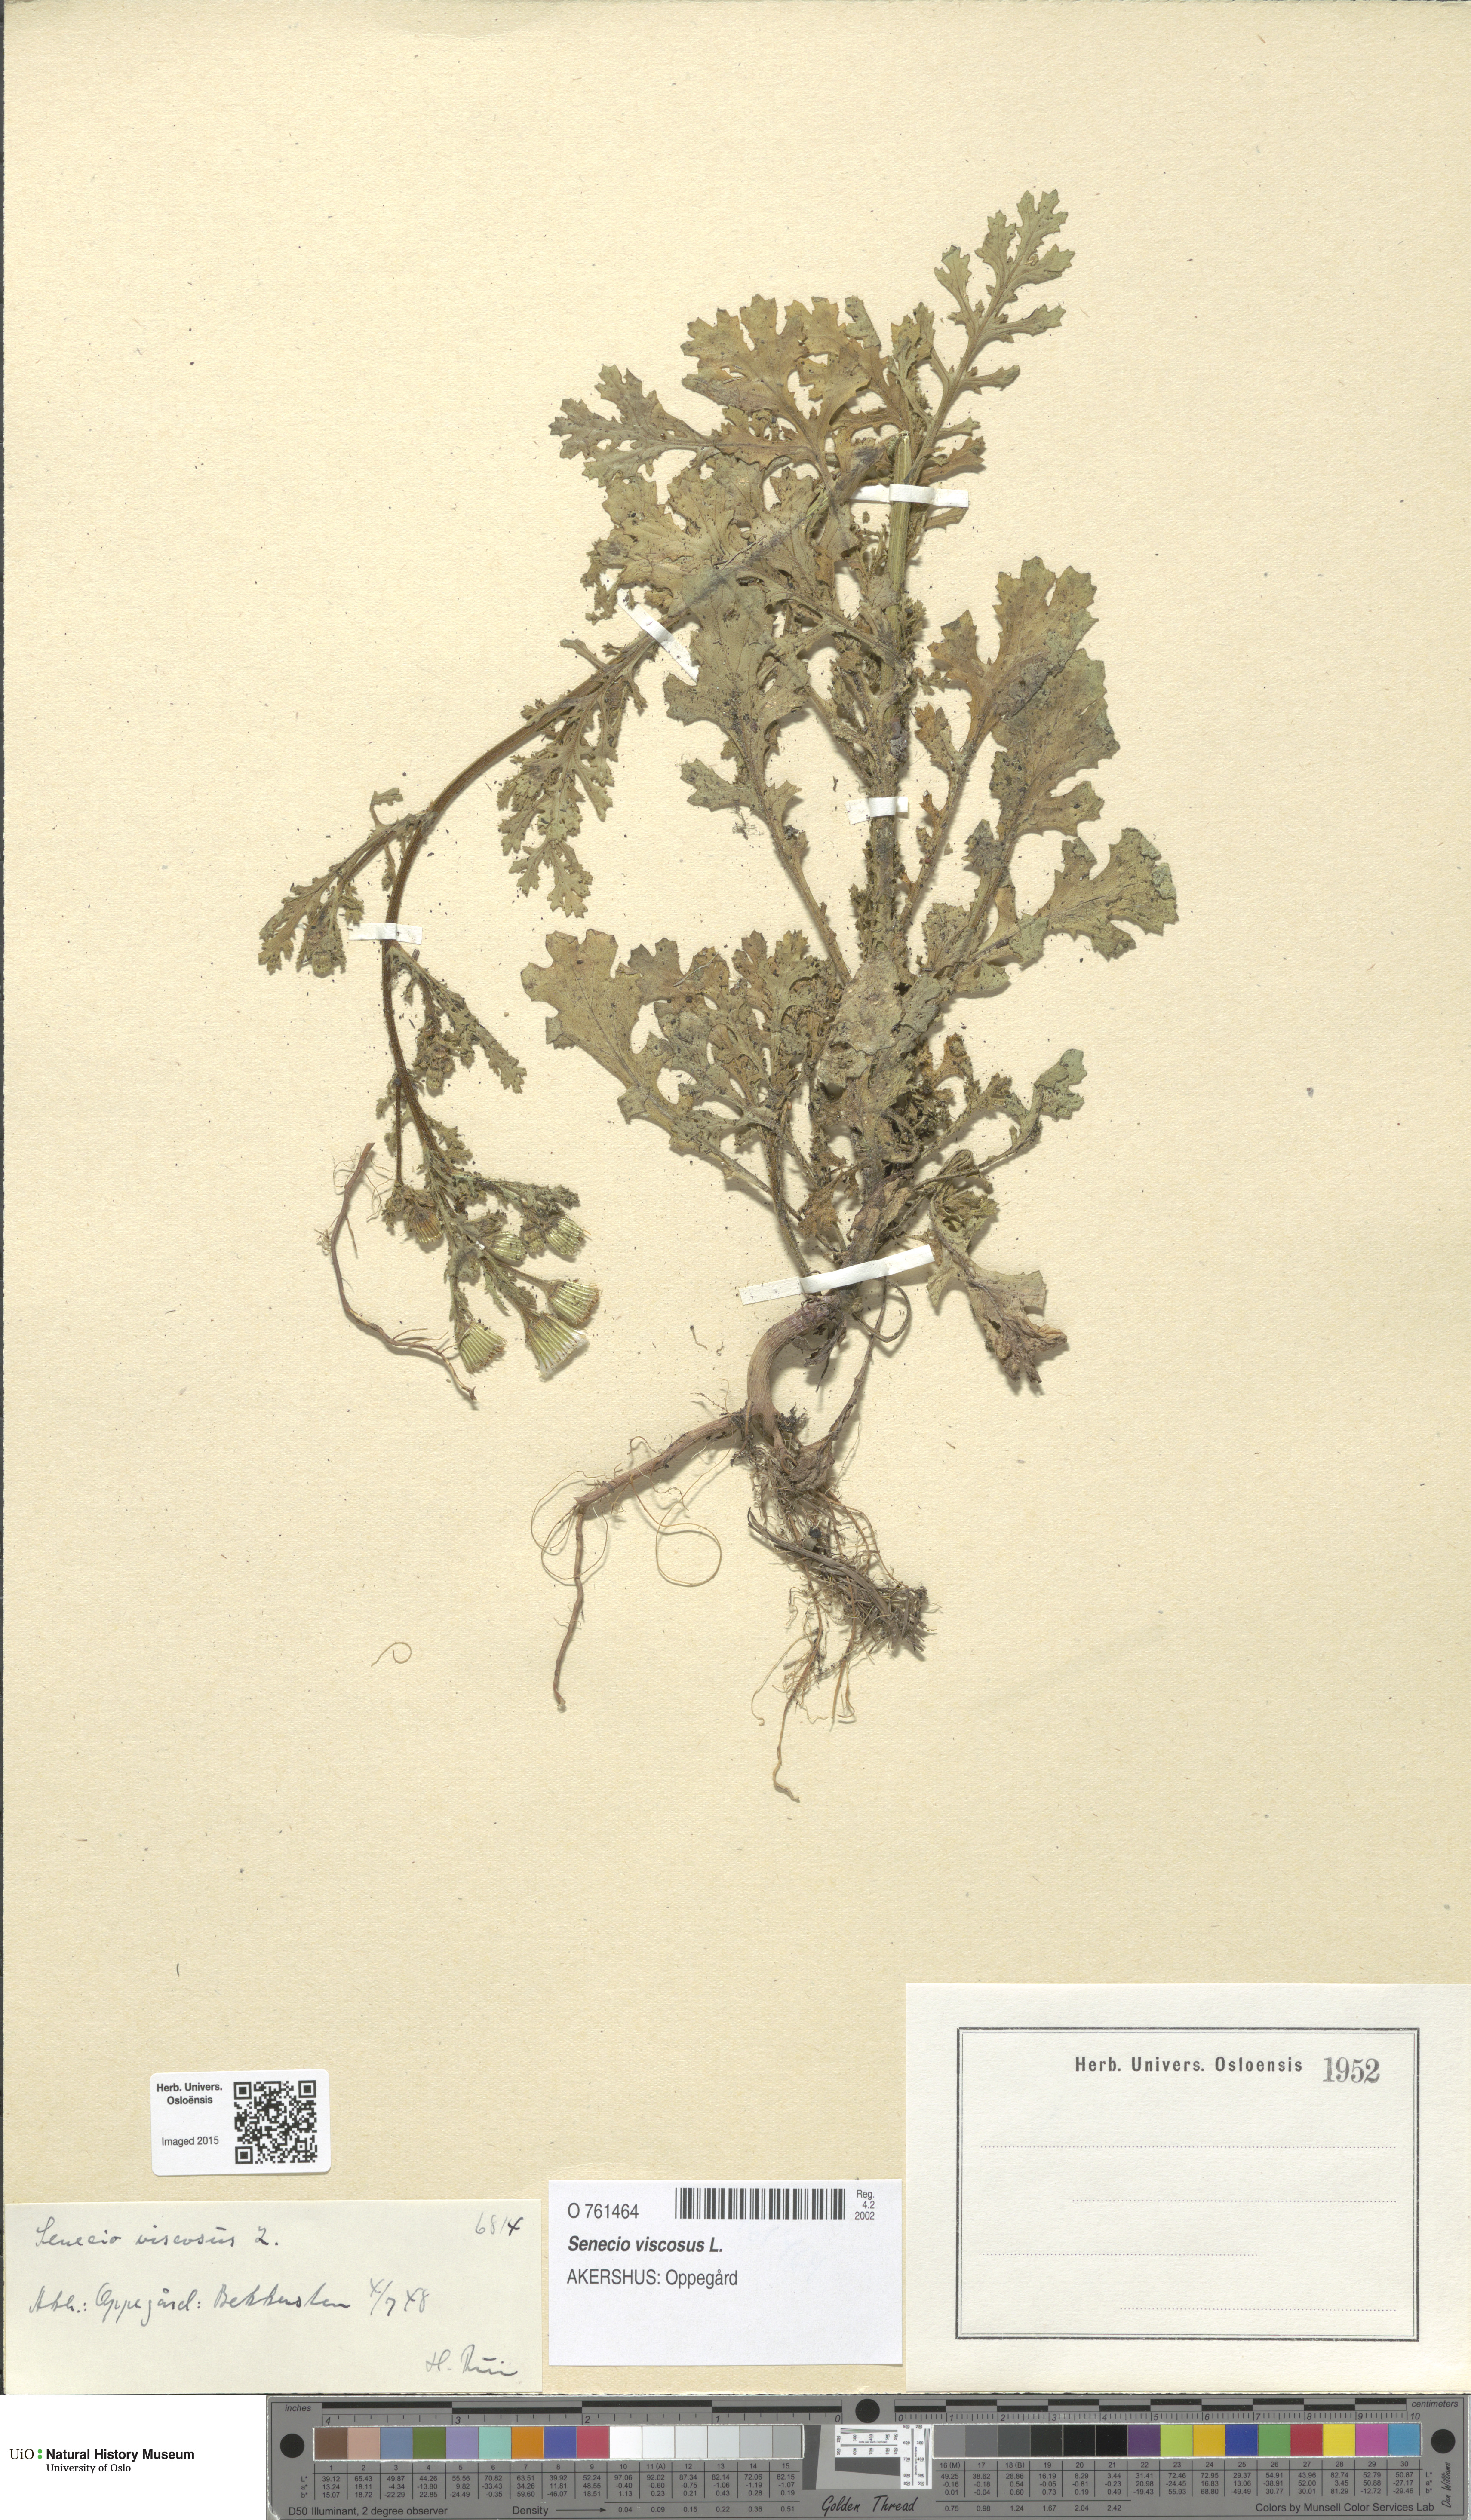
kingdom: Plantae
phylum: Tracheophyta
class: Magnoliopsida
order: Asterales
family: Asteraceae
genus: Senecio
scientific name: Senecio viscosus
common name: Sticky groundsel
